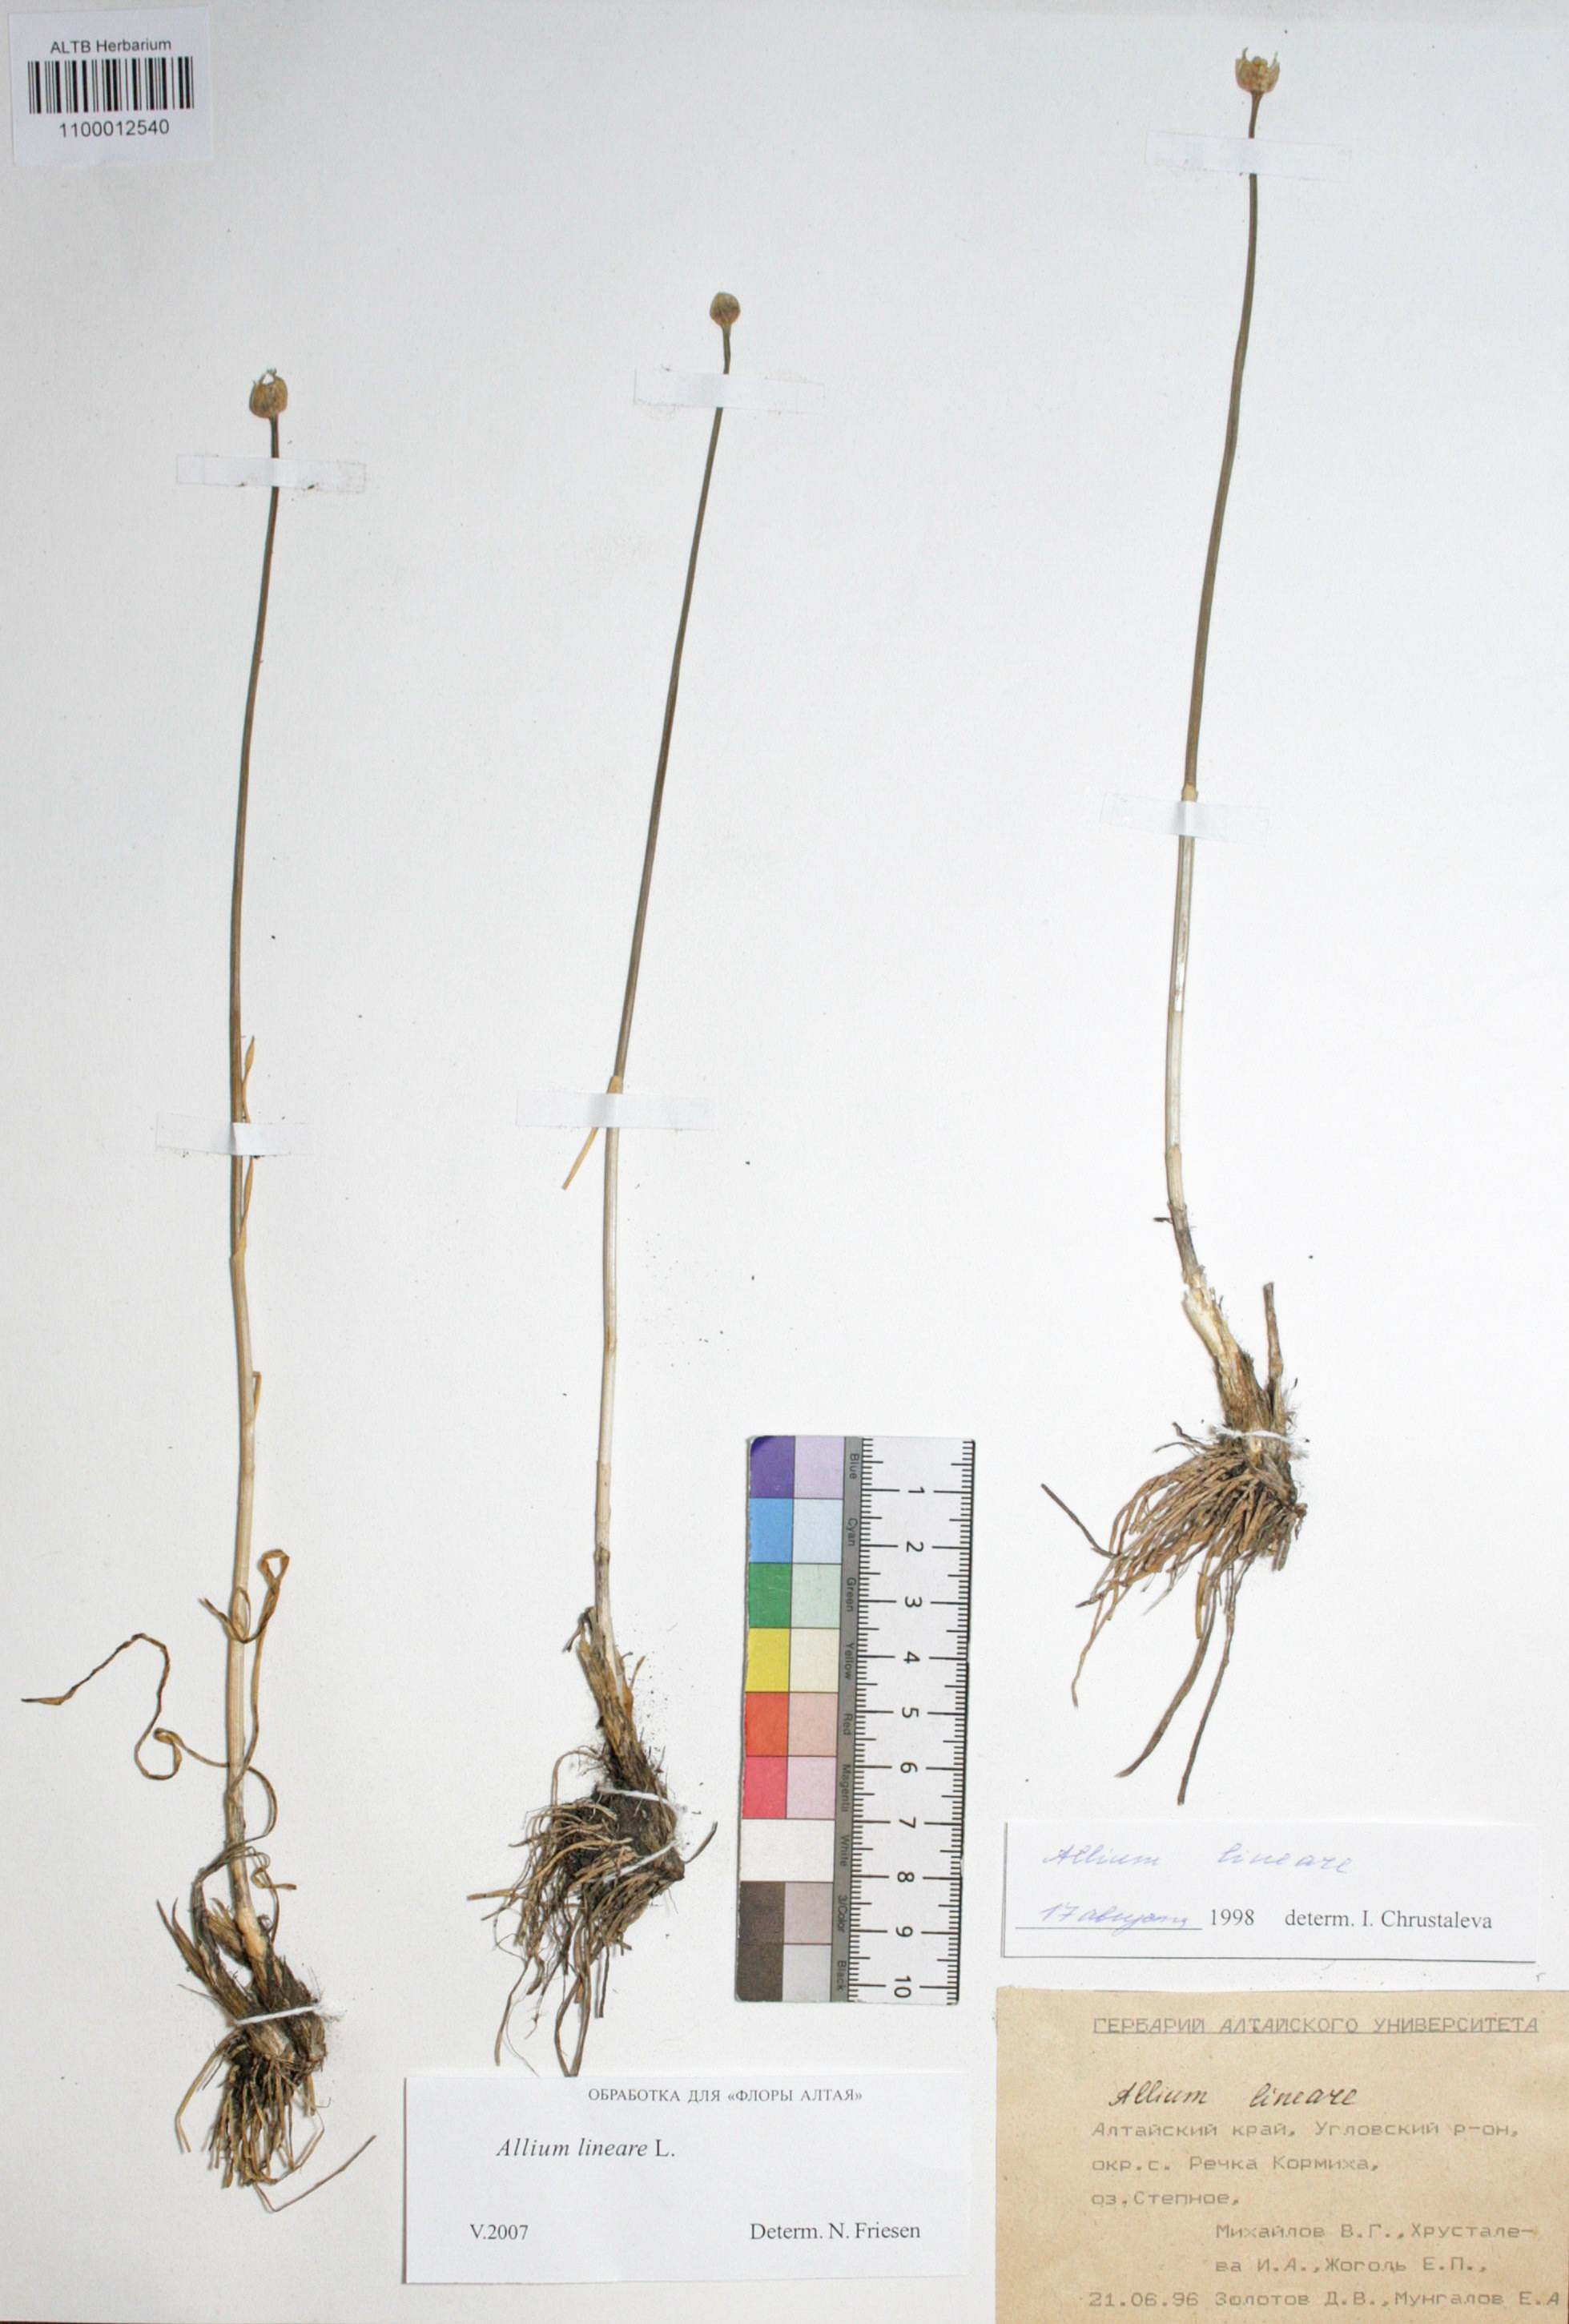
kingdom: Plantae
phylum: Tracheophyta
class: Liliopsida
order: Asparagales
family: Amaryllidaceae
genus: Allium
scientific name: Allium lineare
